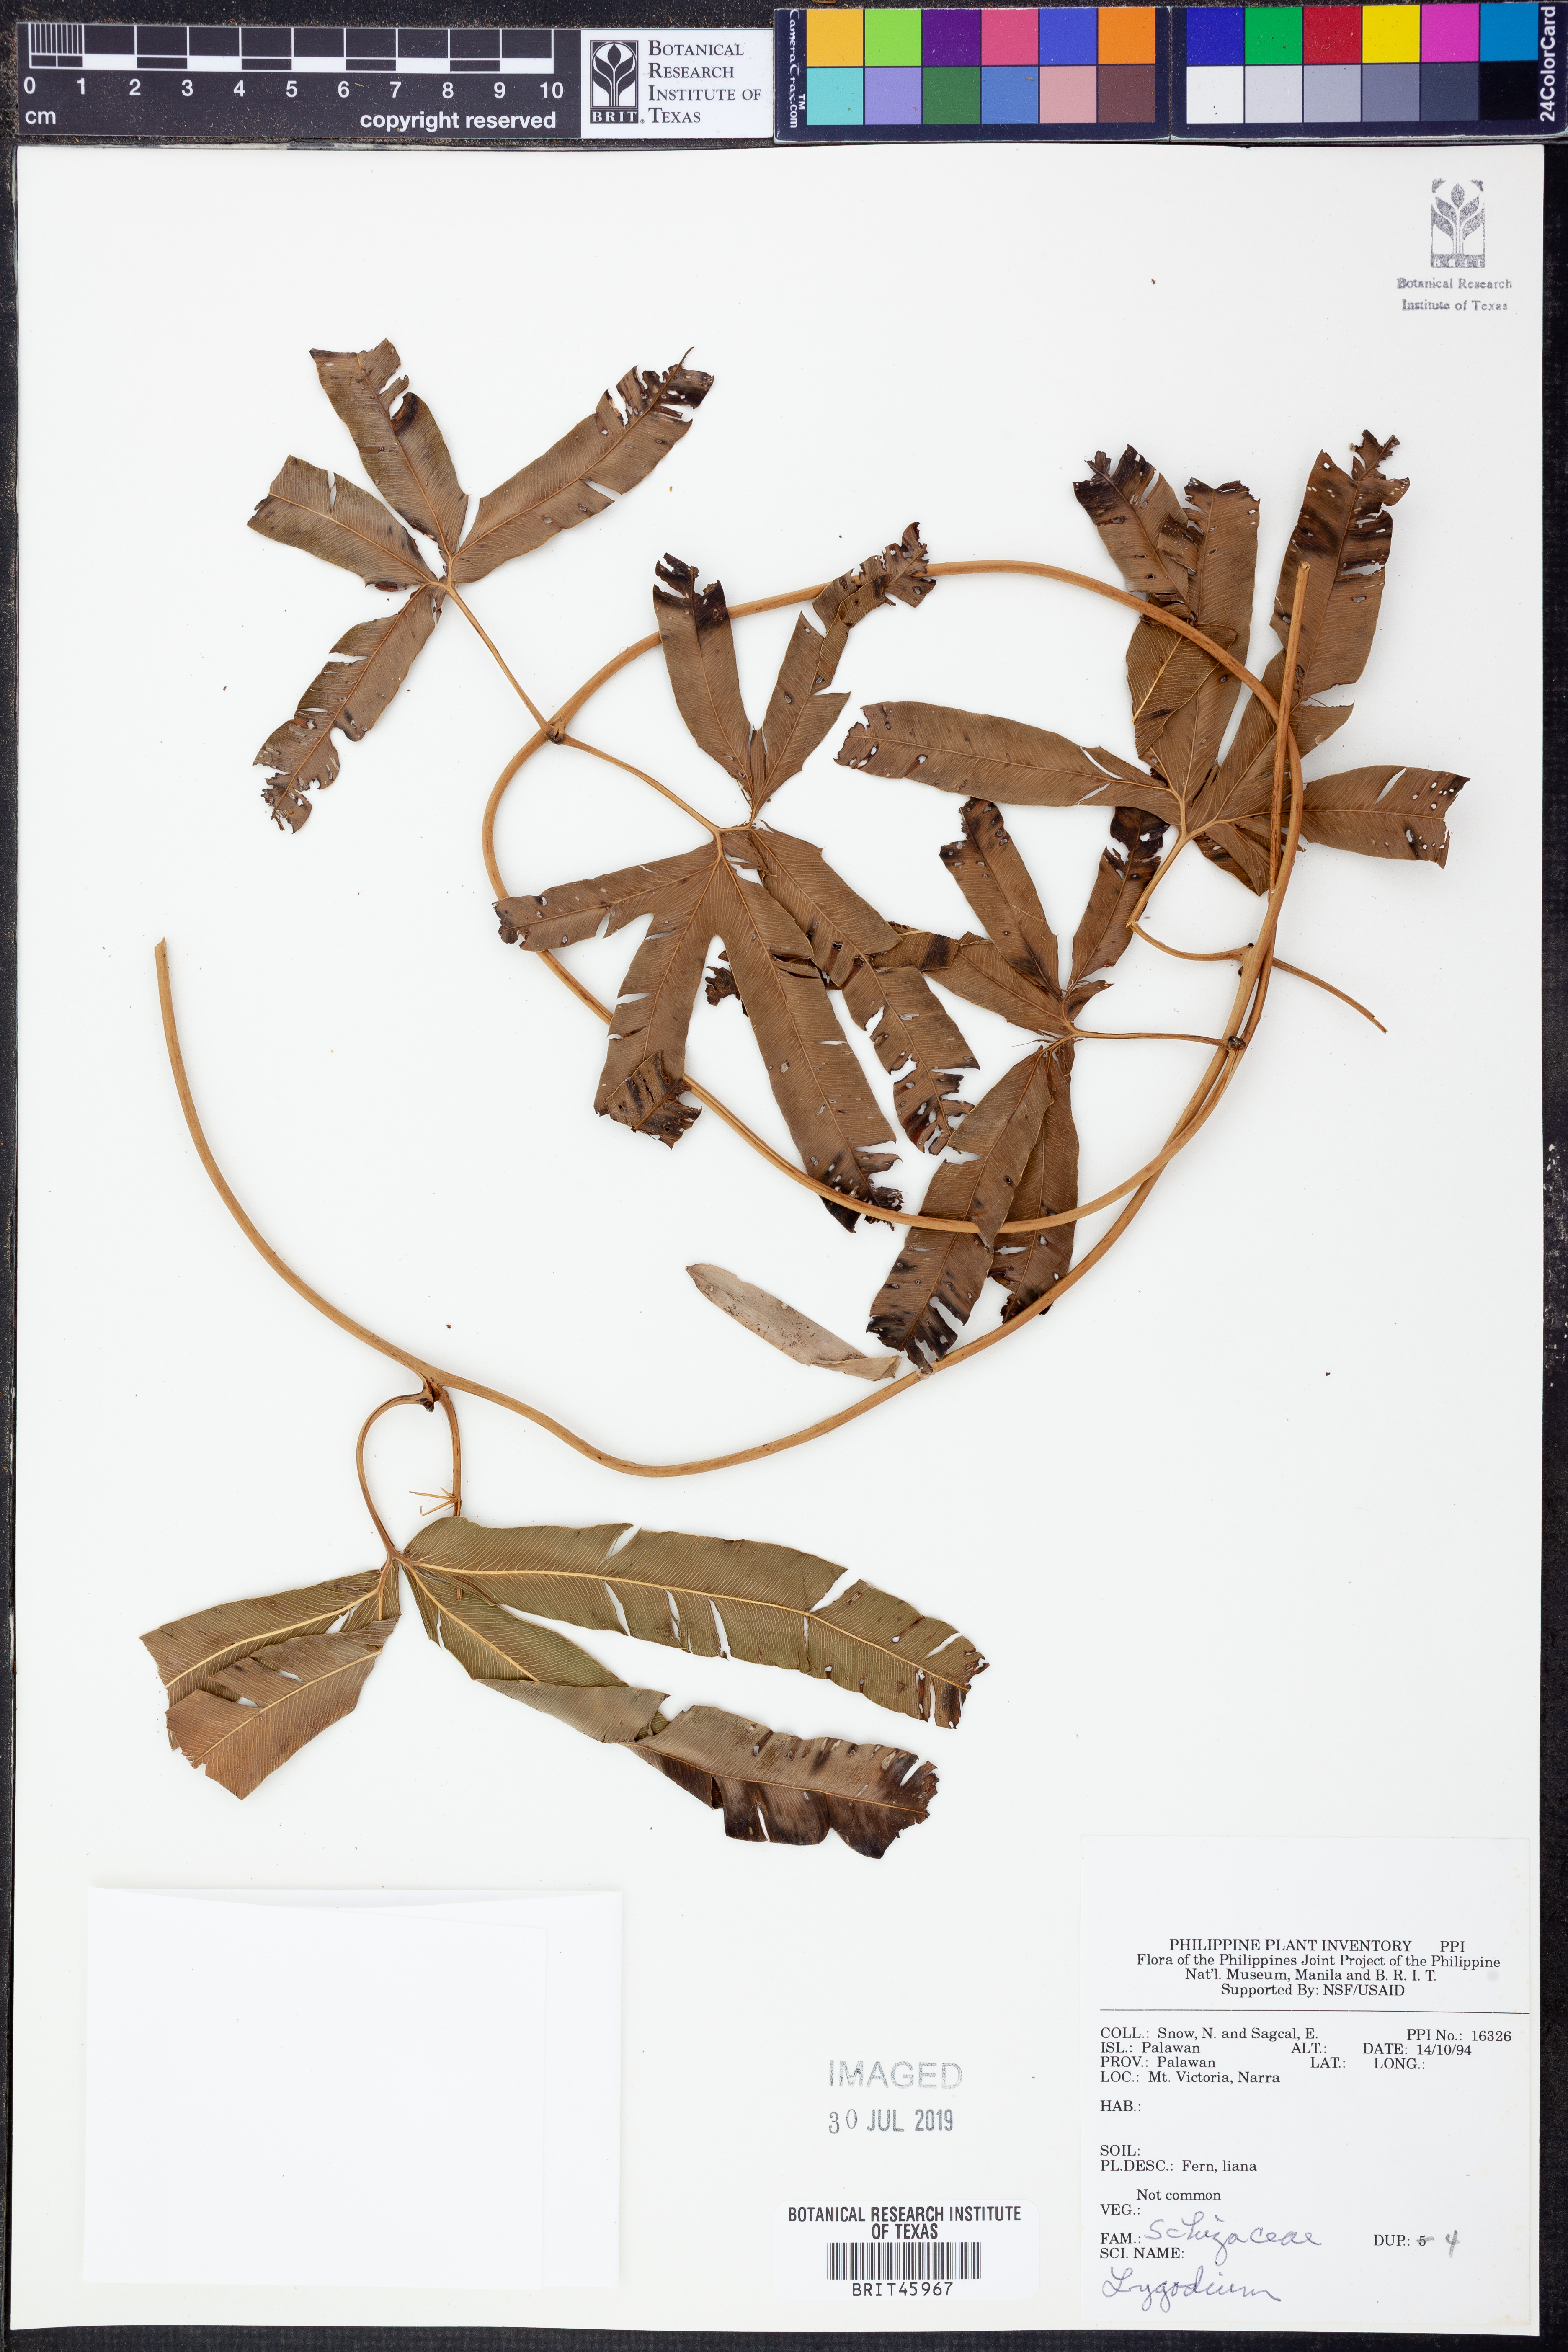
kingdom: Plantae
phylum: Tracheophyta
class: Polypodiopsida
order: Schizaeales
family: Lygodiaceae
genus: Lygodium
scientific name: Lygodium
